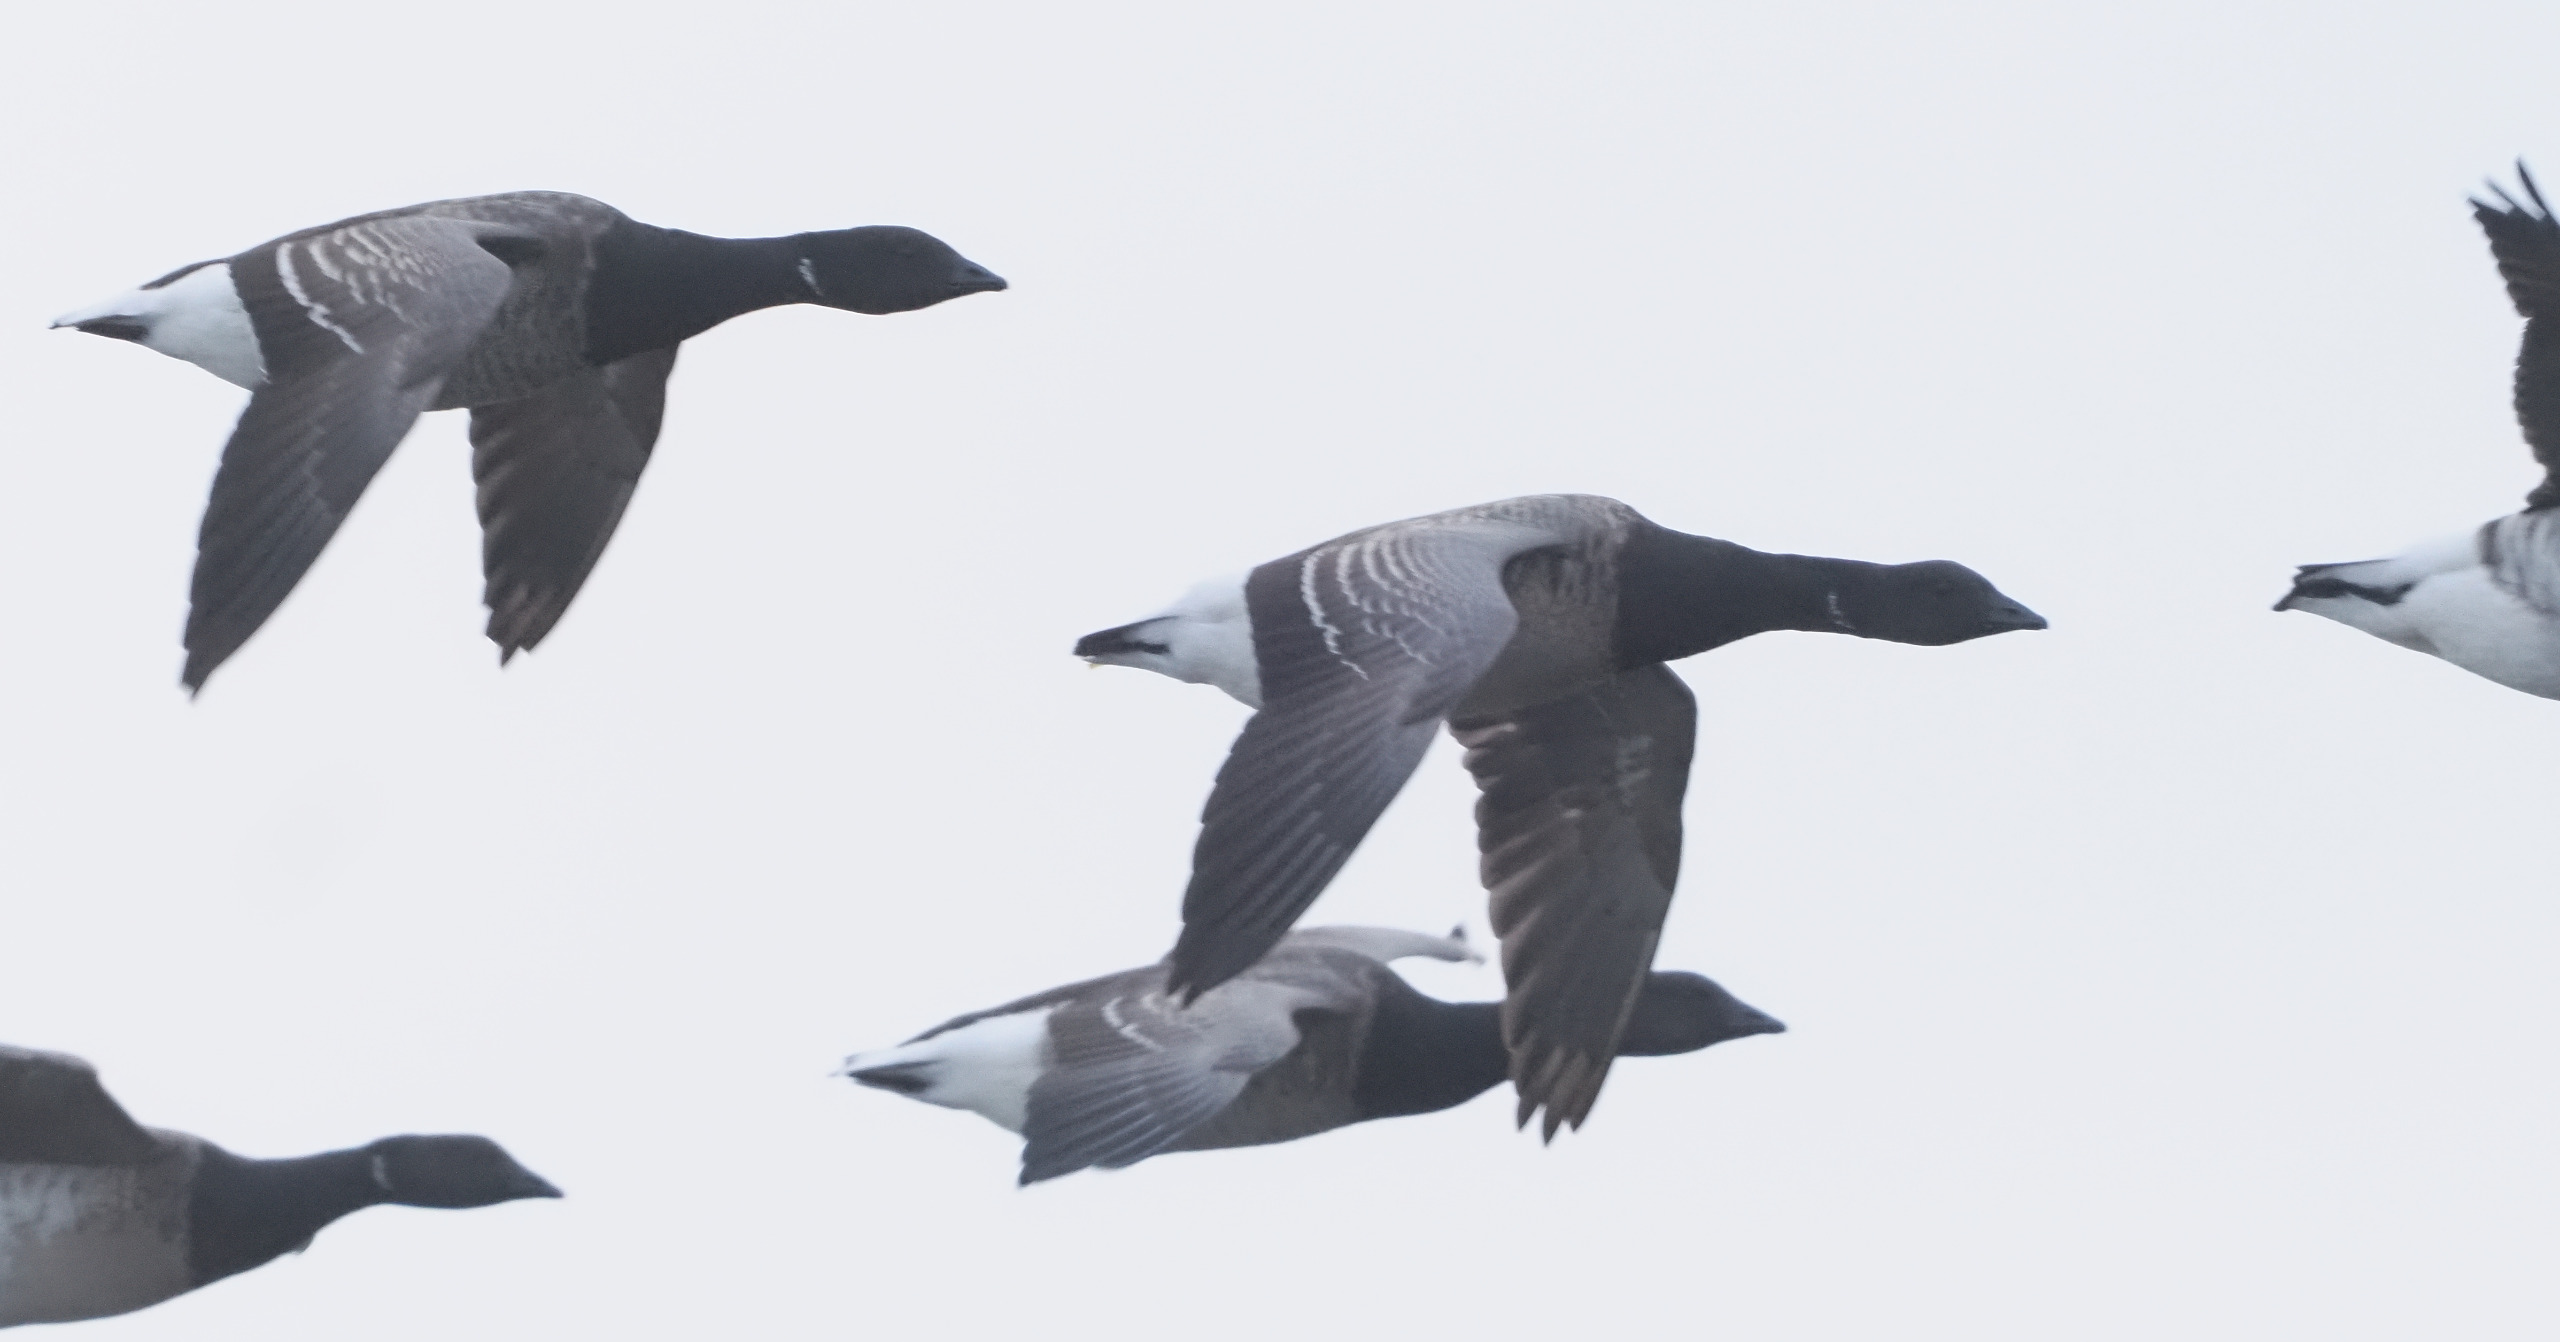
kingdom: Animalia
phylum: Chordata
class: Aves
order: Anseriformes
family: Anatidae
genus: Branta
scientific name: Branta bernicla
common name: Knortegås
